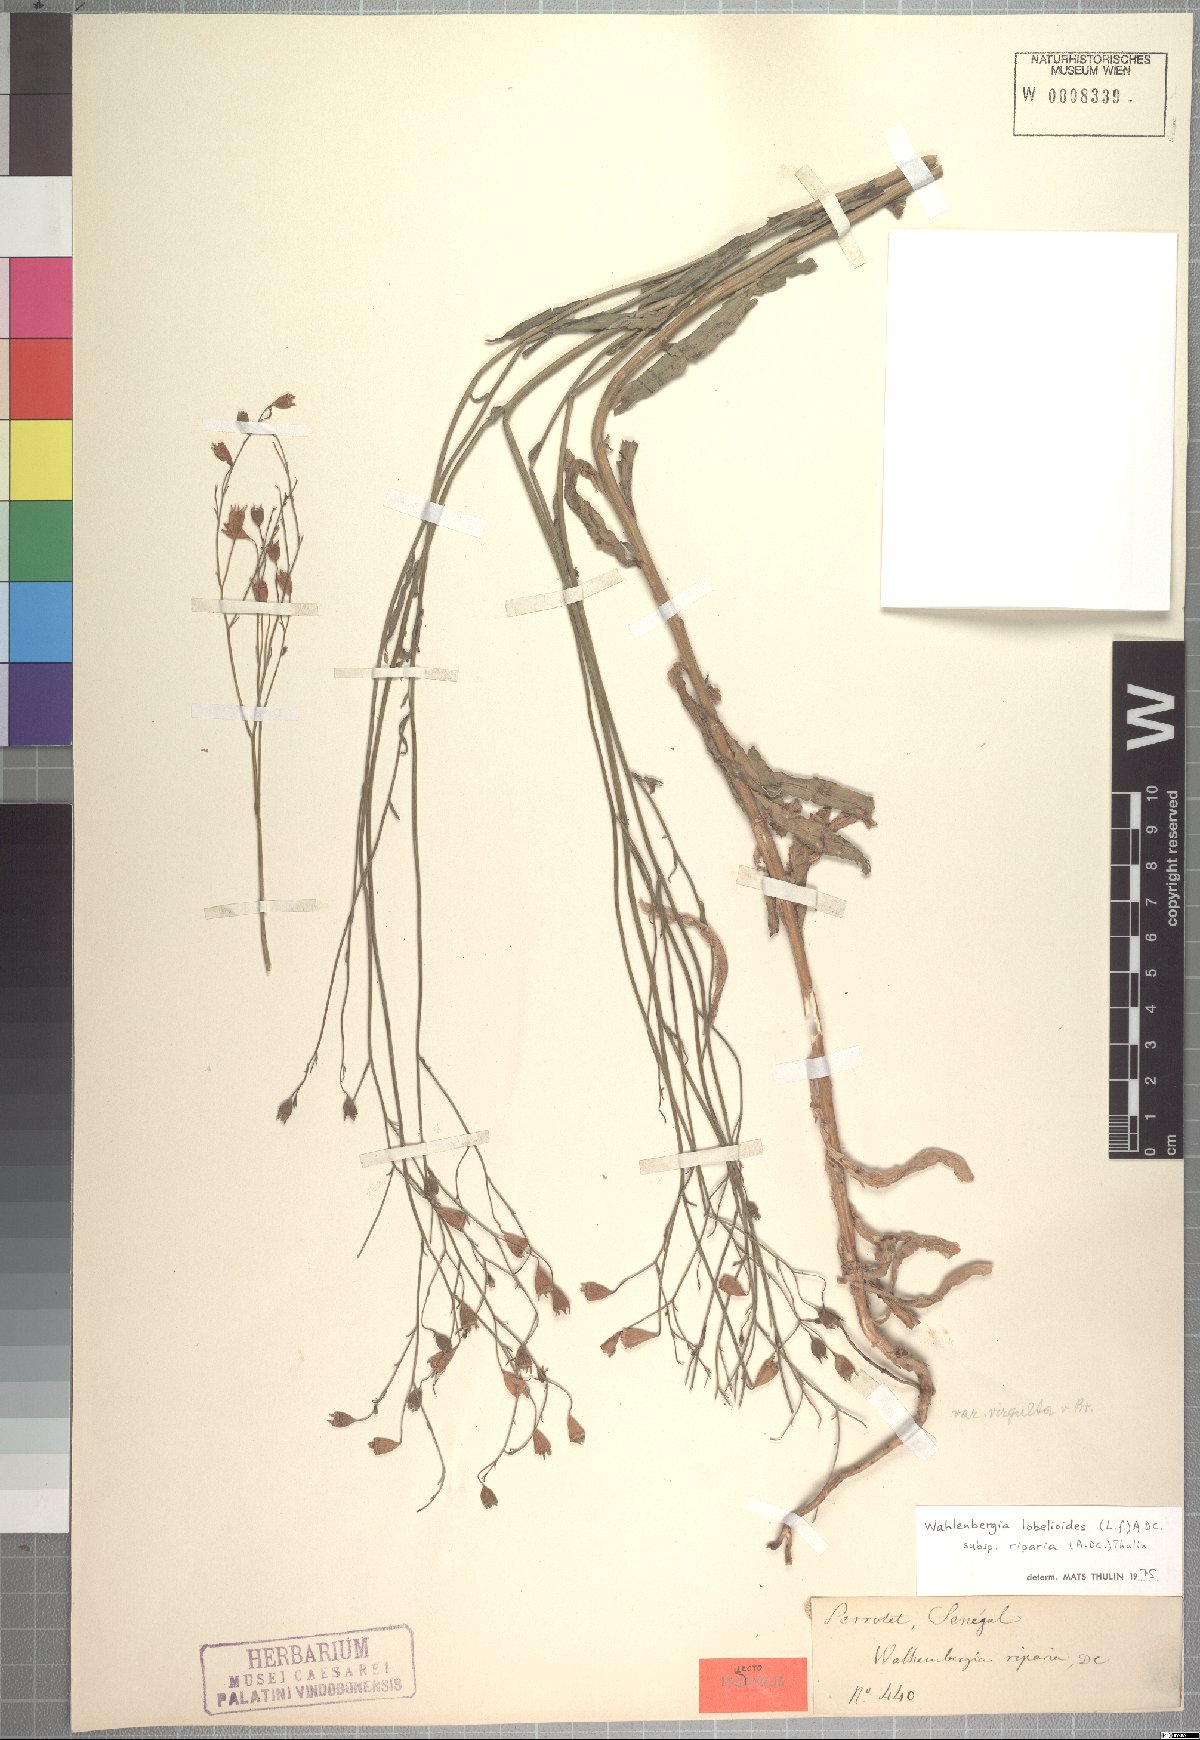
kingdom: Plantae
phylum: Tracheophyta
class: Magnoliopsida
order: Asterales
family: Campanulaceae
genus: Wahlenbergia
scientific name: Wahlenbergia lobelioides
